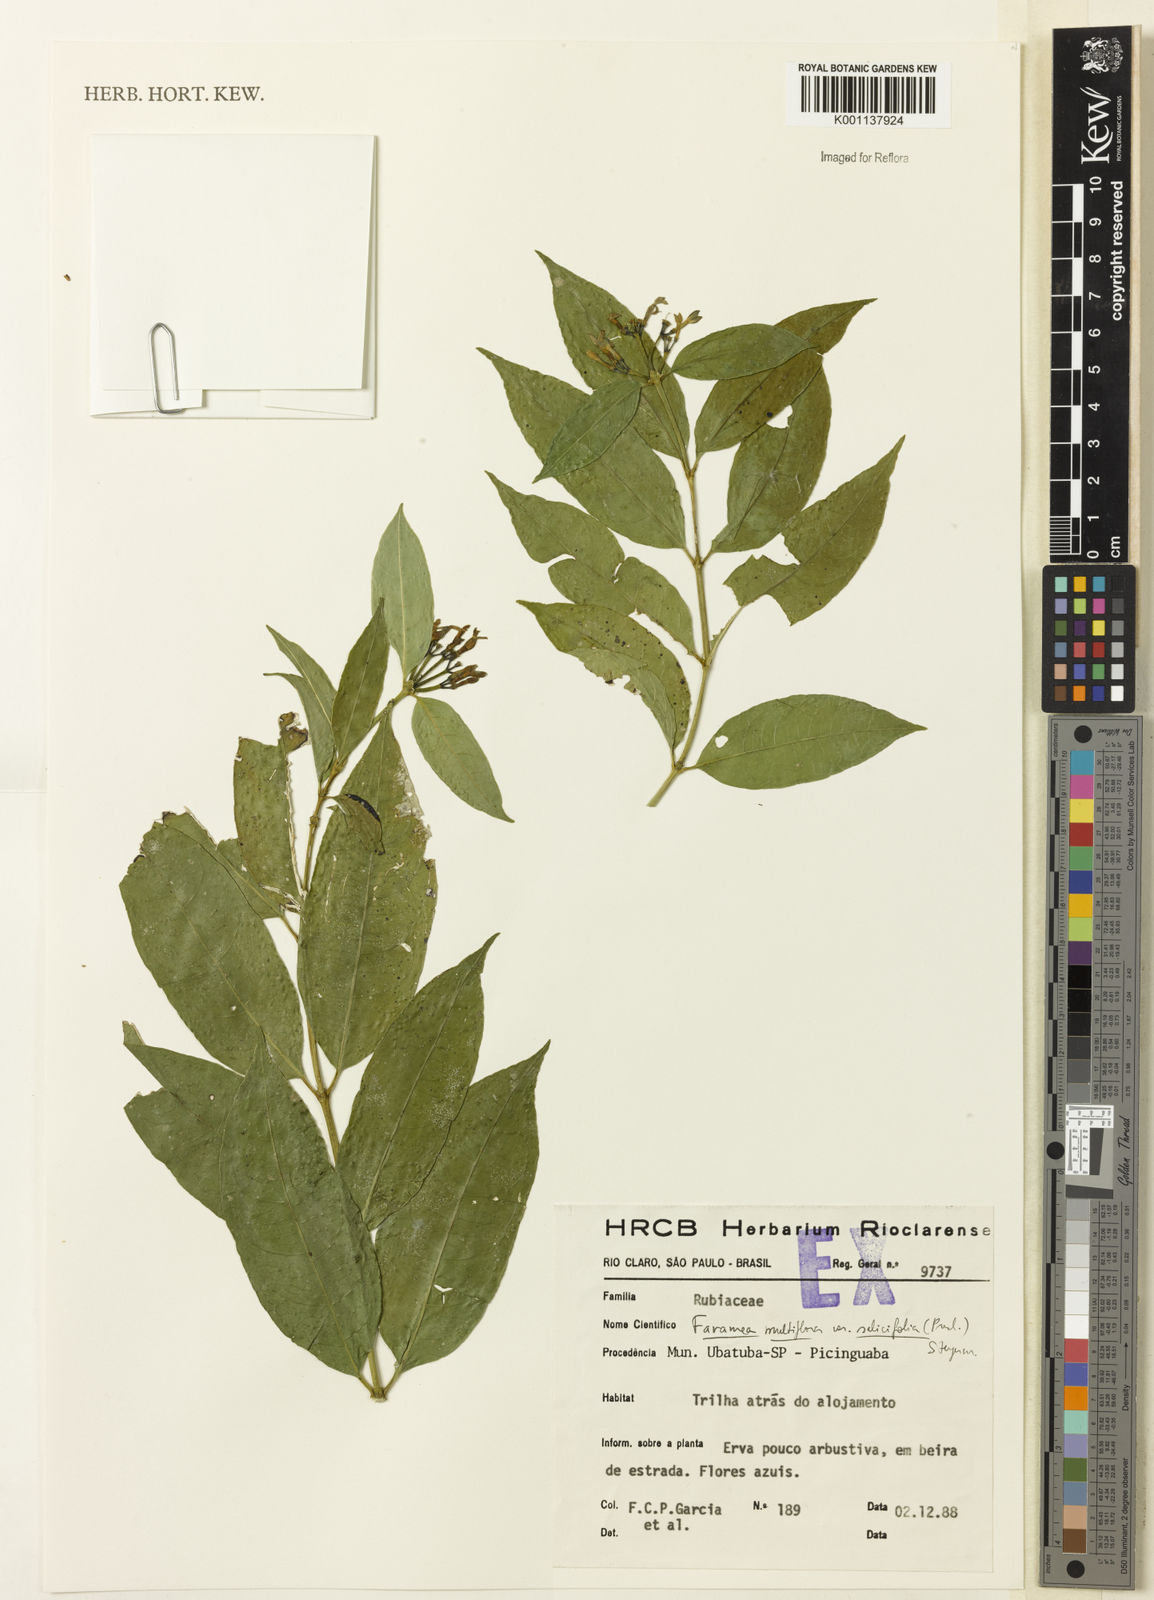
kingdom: Plantae
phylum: Tracheophyta
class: Magnoliopsida
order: Gentianales
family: Rubiaceae
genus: Faramea
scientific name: Faramea multiflora
